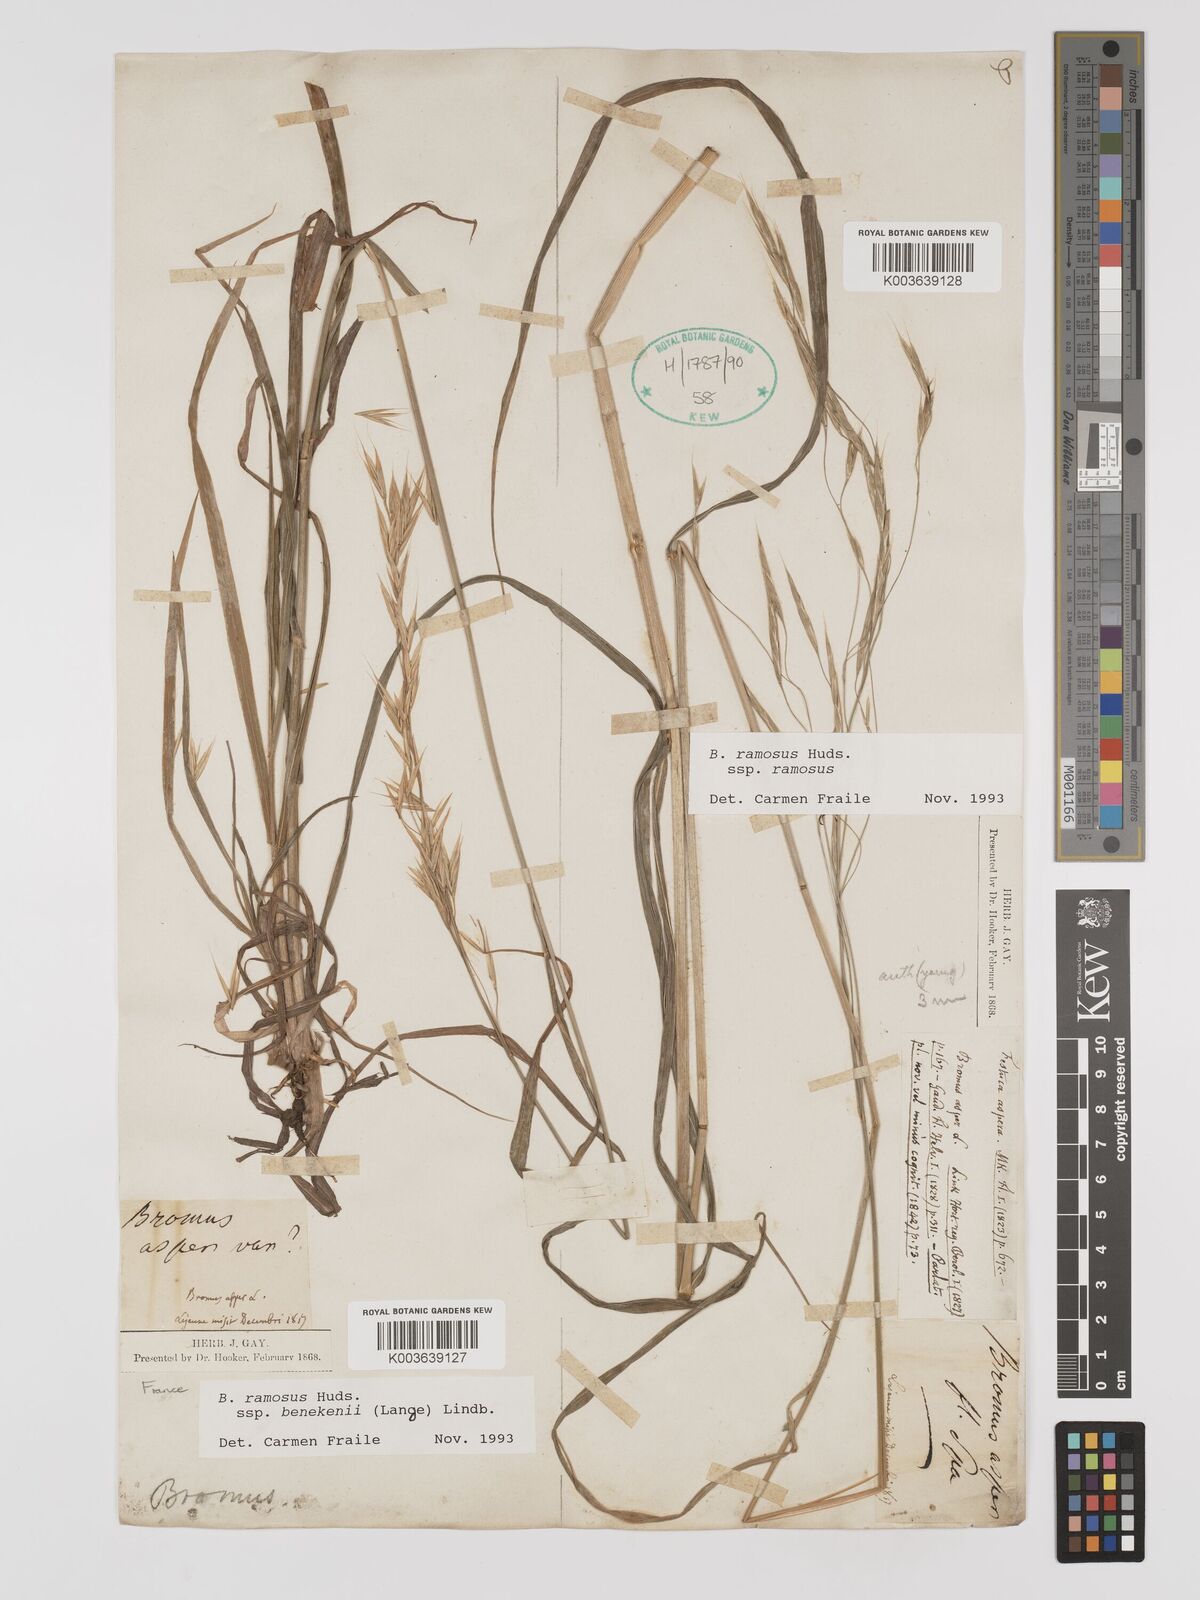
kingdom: Plantae
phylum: Tracheophyta
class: Liliopsida
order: Poales
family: Poaceae
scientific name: Poaceae
